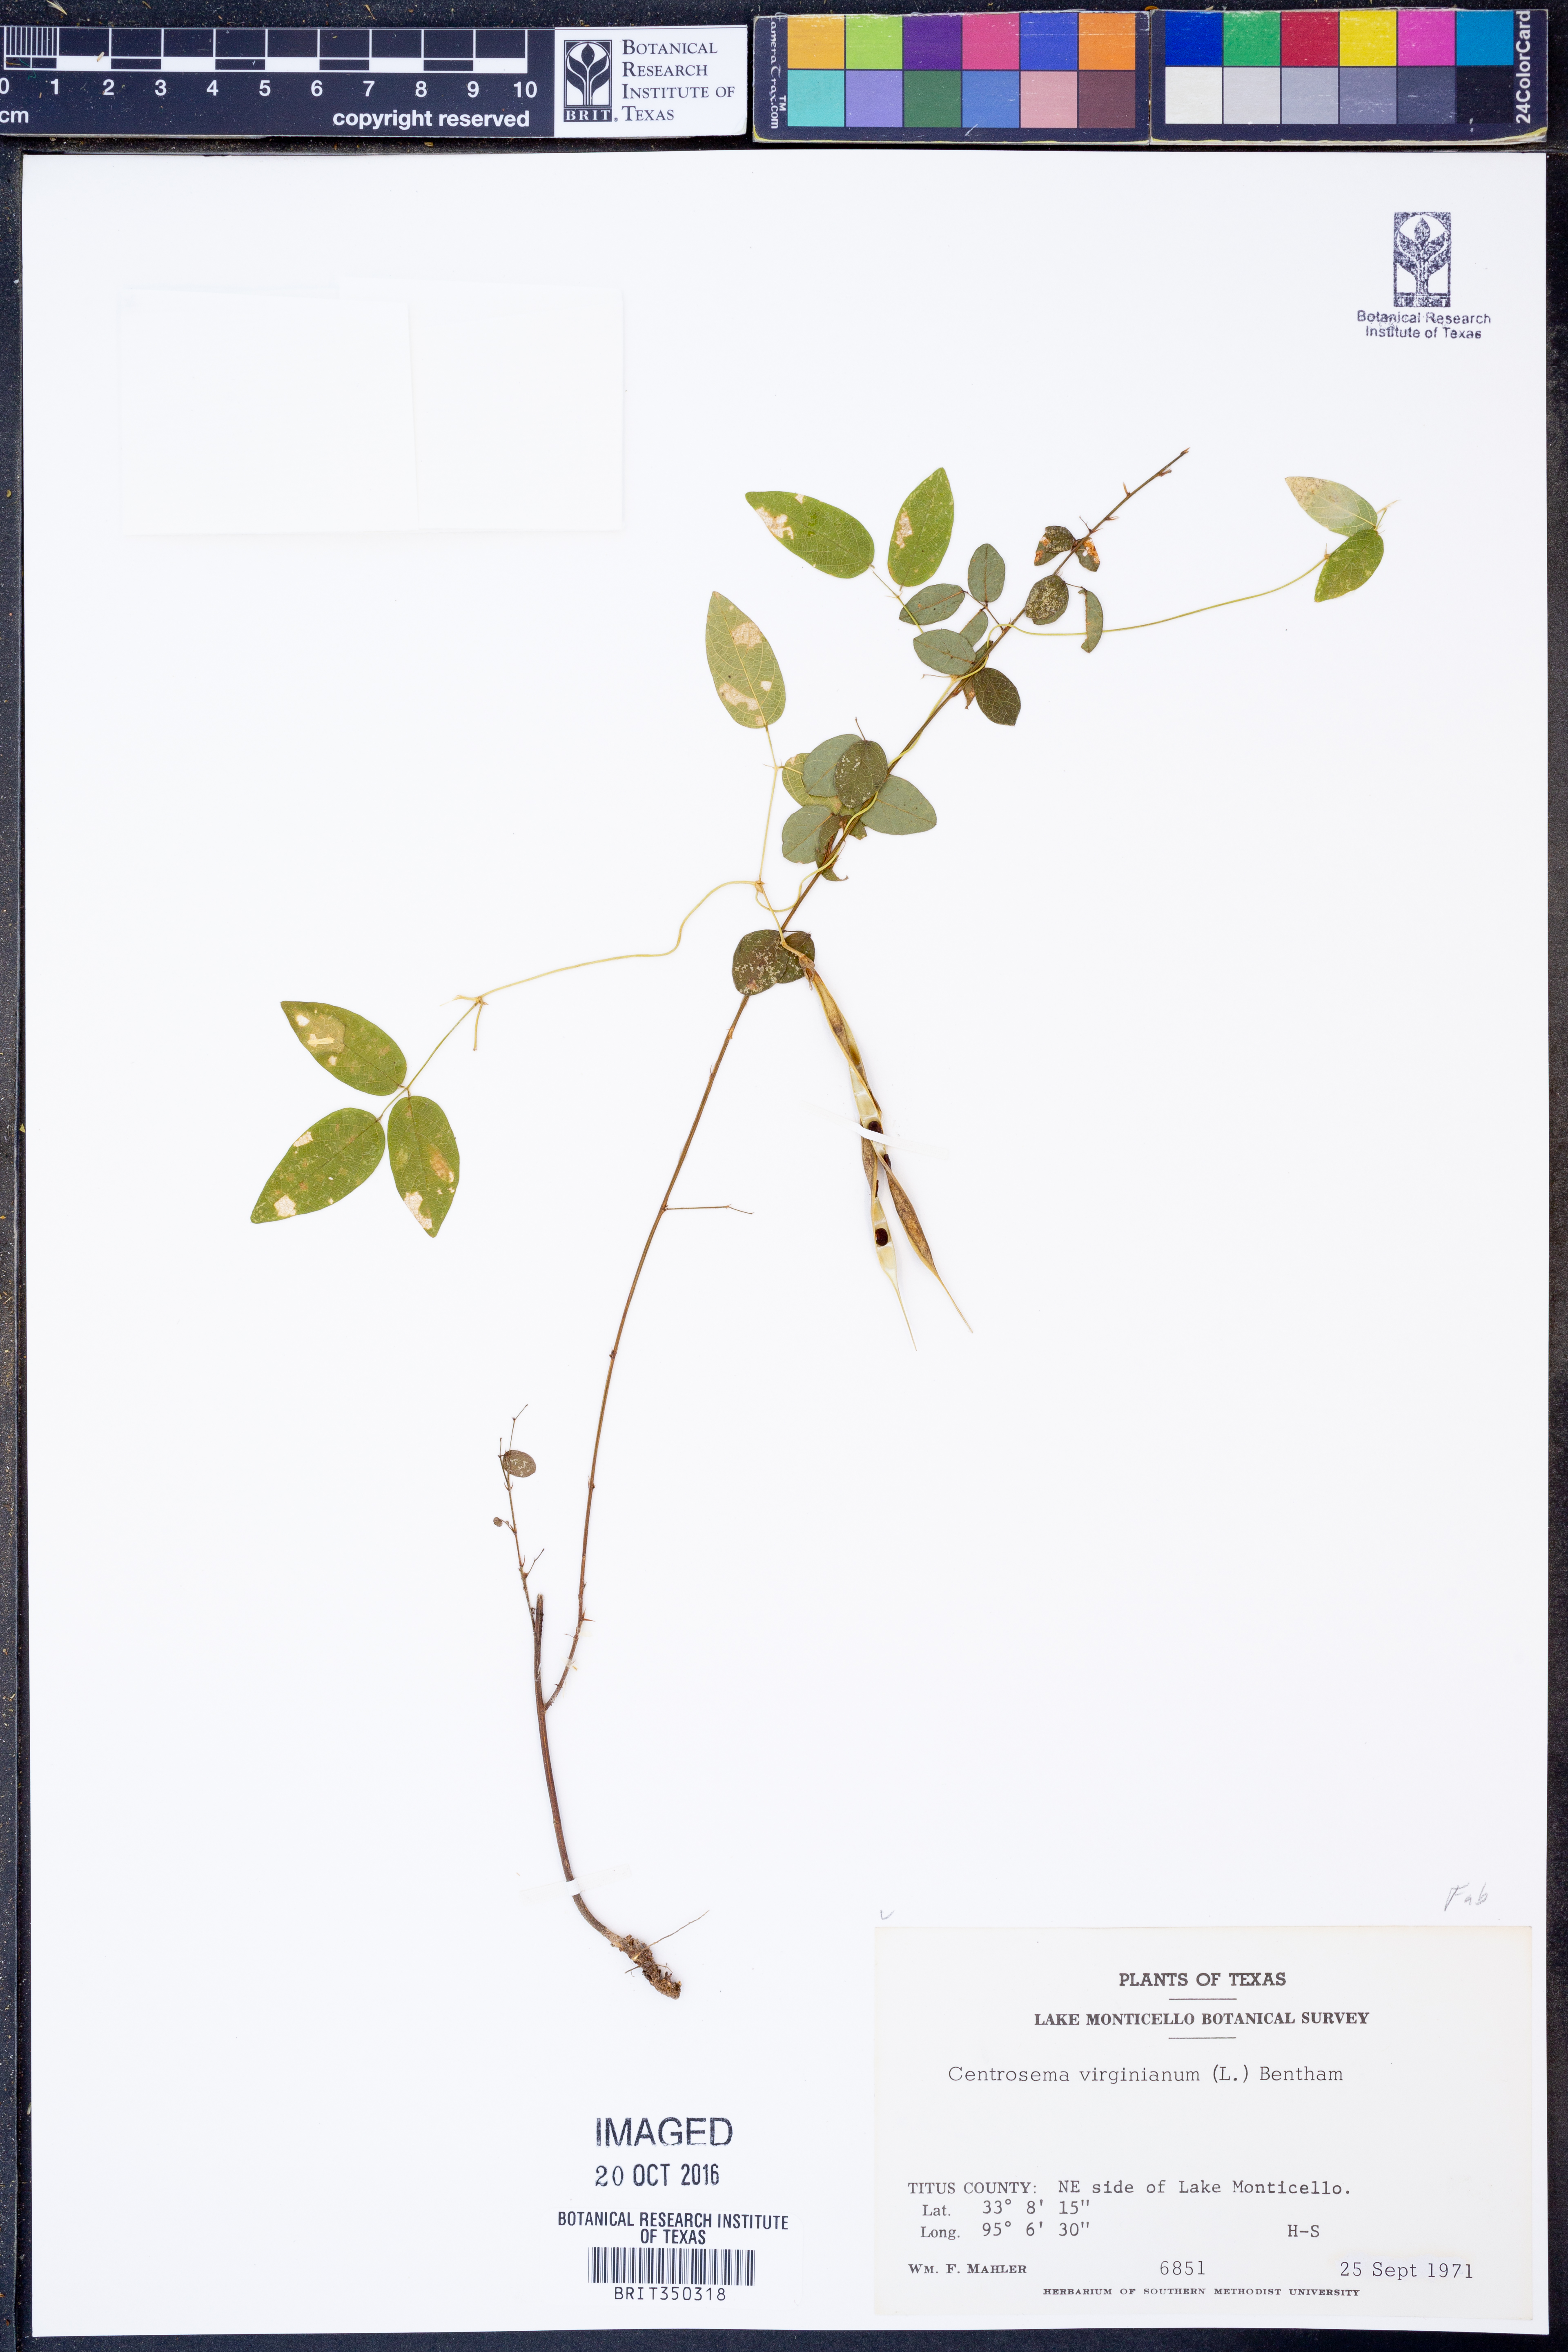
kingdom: Plantae
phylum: Tracheophyta
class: Magnoliopsida
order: Fabales
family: Fabaceae
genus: Centrosema
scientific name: Centrosema virginianum
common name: Butterfly-pea
